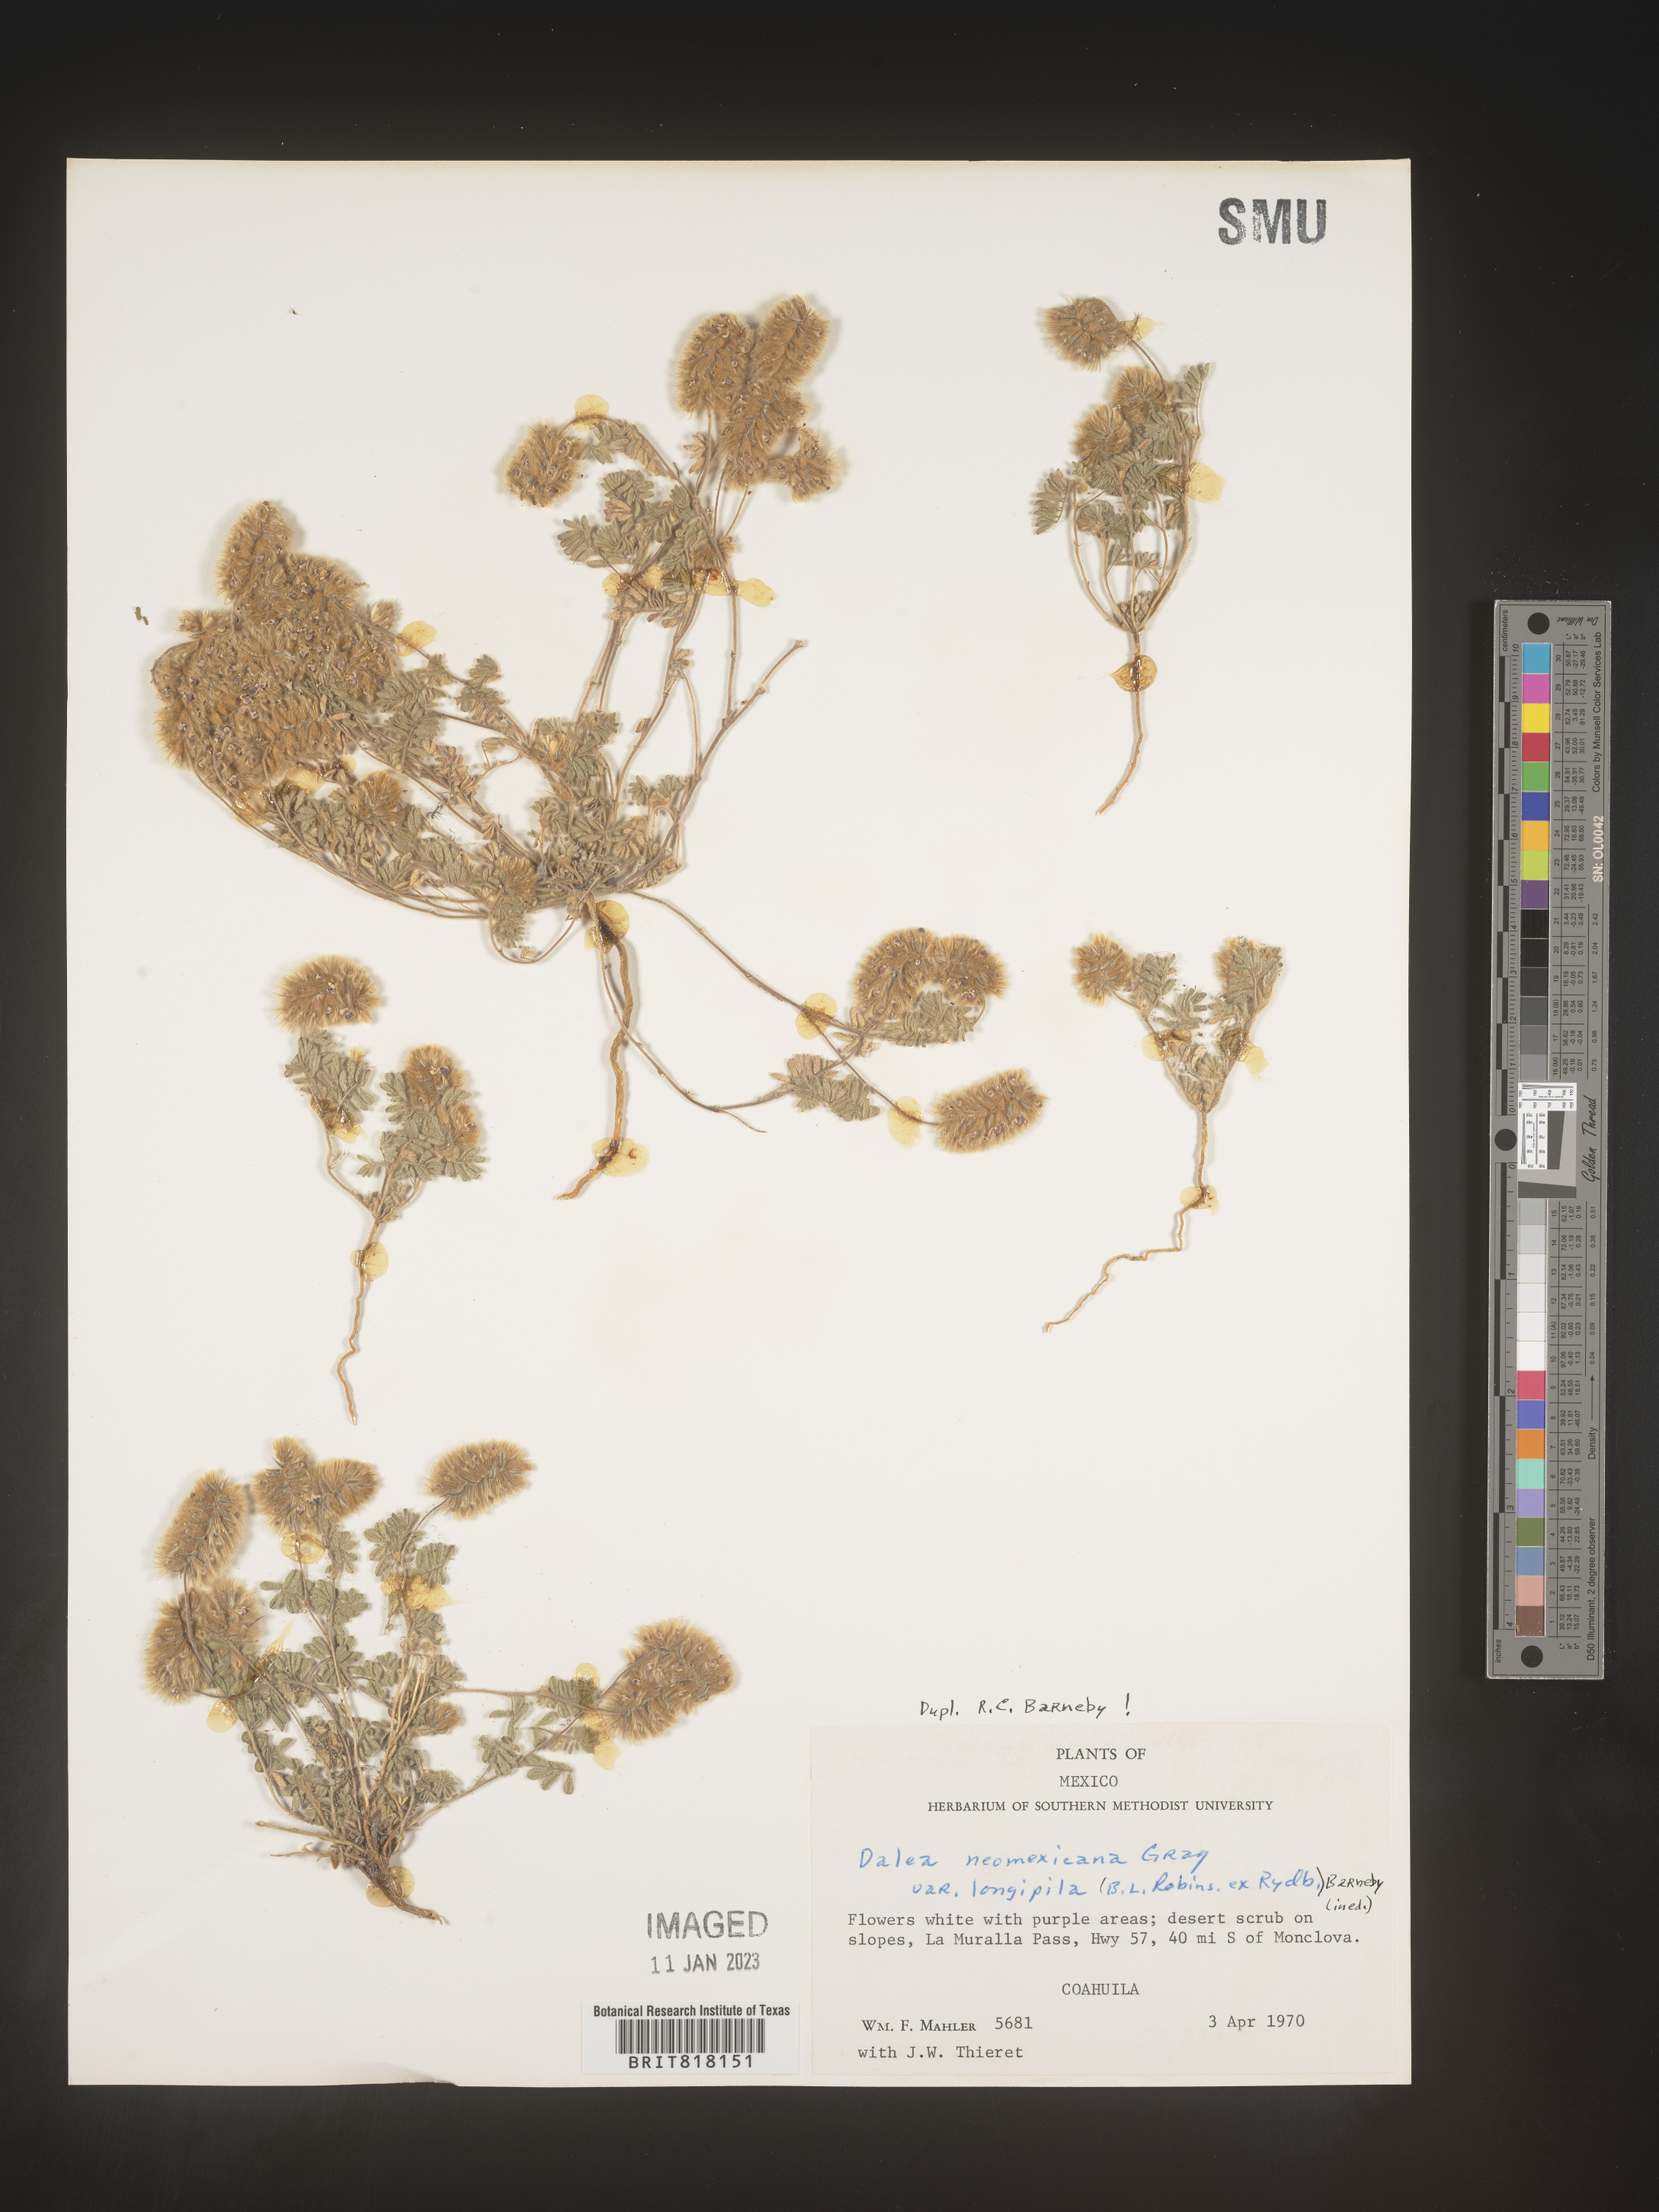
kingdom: Plantae
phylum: Tracheophyta
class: Magnoliopsida
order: Fabales
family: Fabaceae
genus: Dalea
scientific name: Dalea
